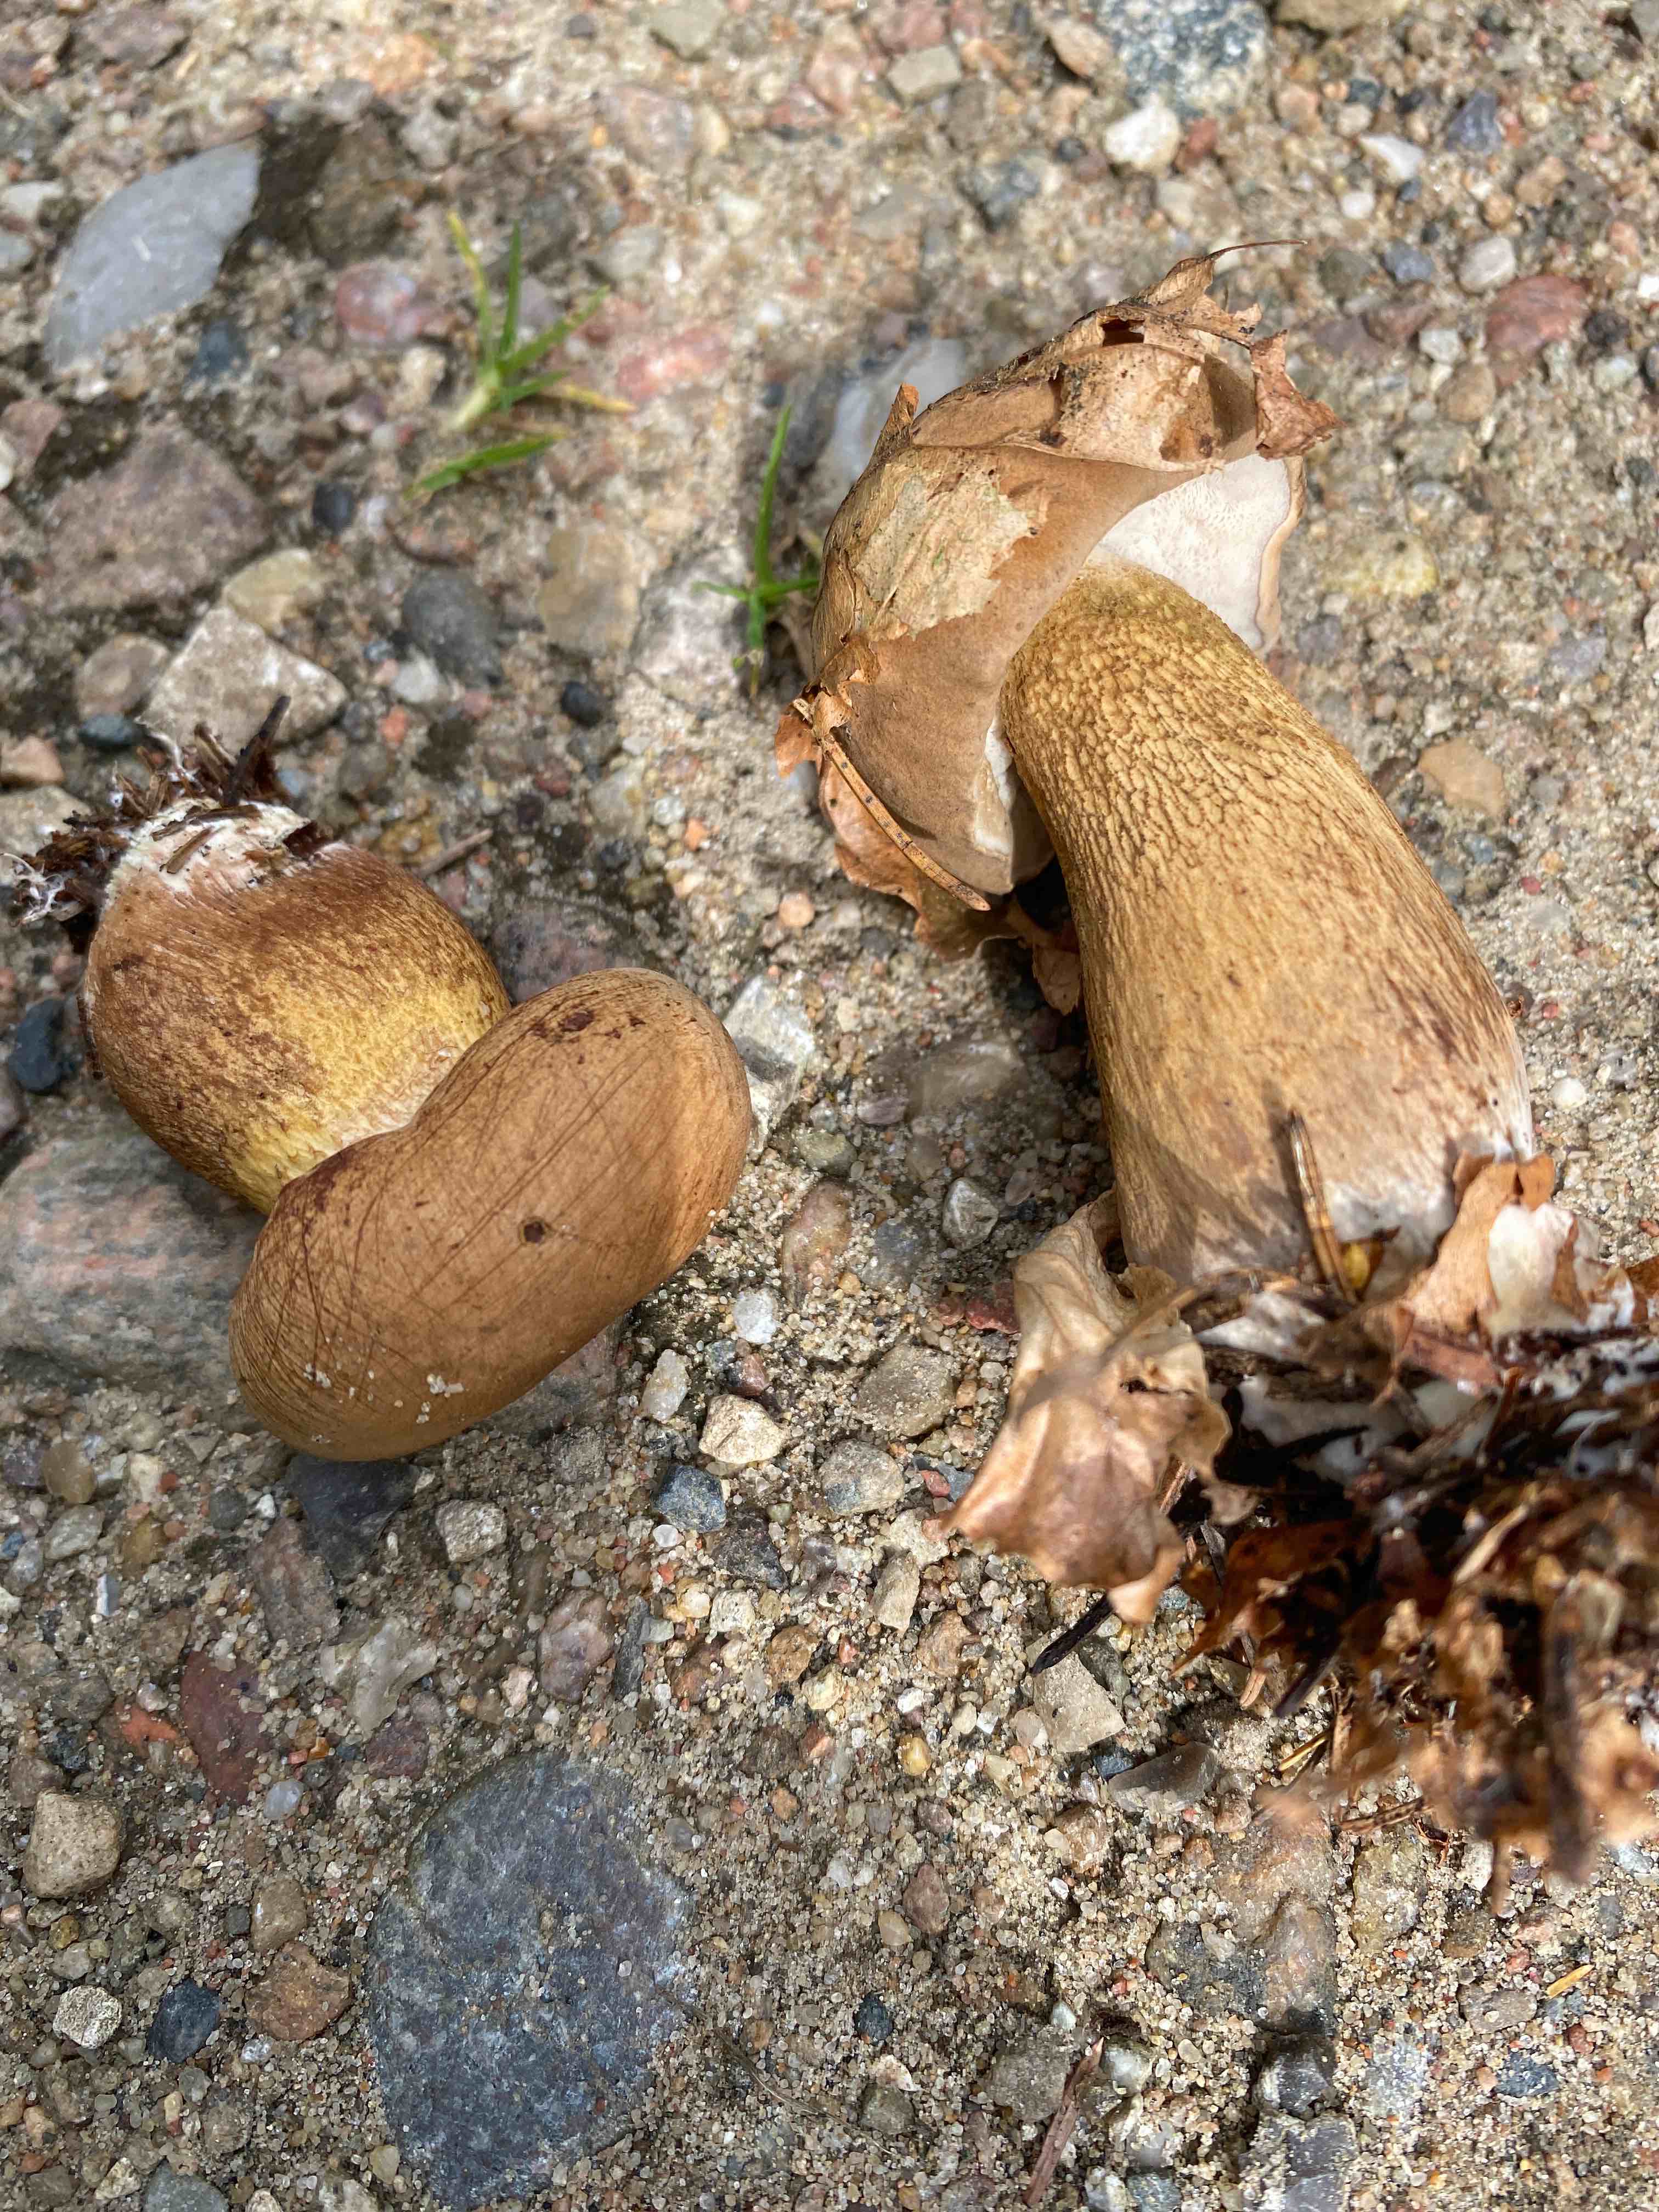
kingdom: Fungi
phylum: Basidiomycota
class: Agaricomycetes
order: Boletales
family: Boletaceae
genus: Tylopilus
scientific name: Tylopilus felleus
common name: galderørhat
